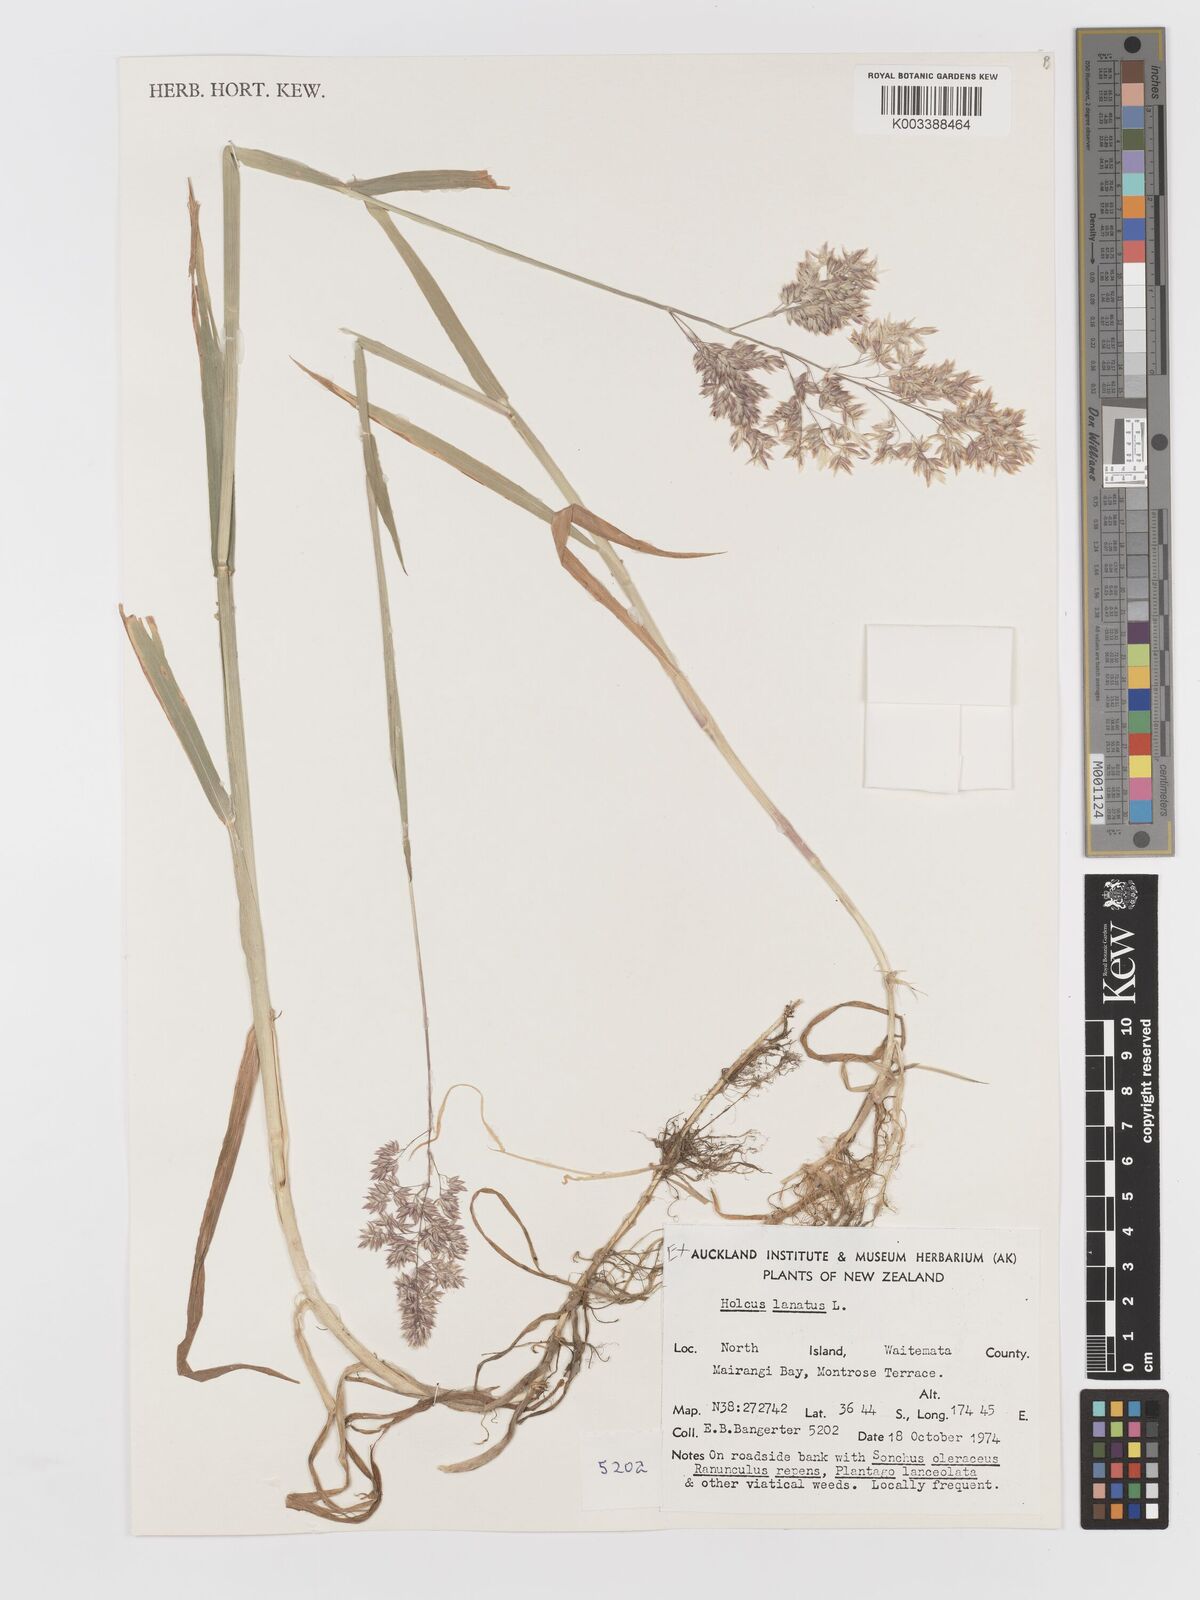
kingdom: Plantae
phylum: Tracheophyta
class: Liliopsida
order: Poales
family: Poaceae
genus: Holcus
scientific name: Holcus lanatus
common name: Yorkshire-fog
